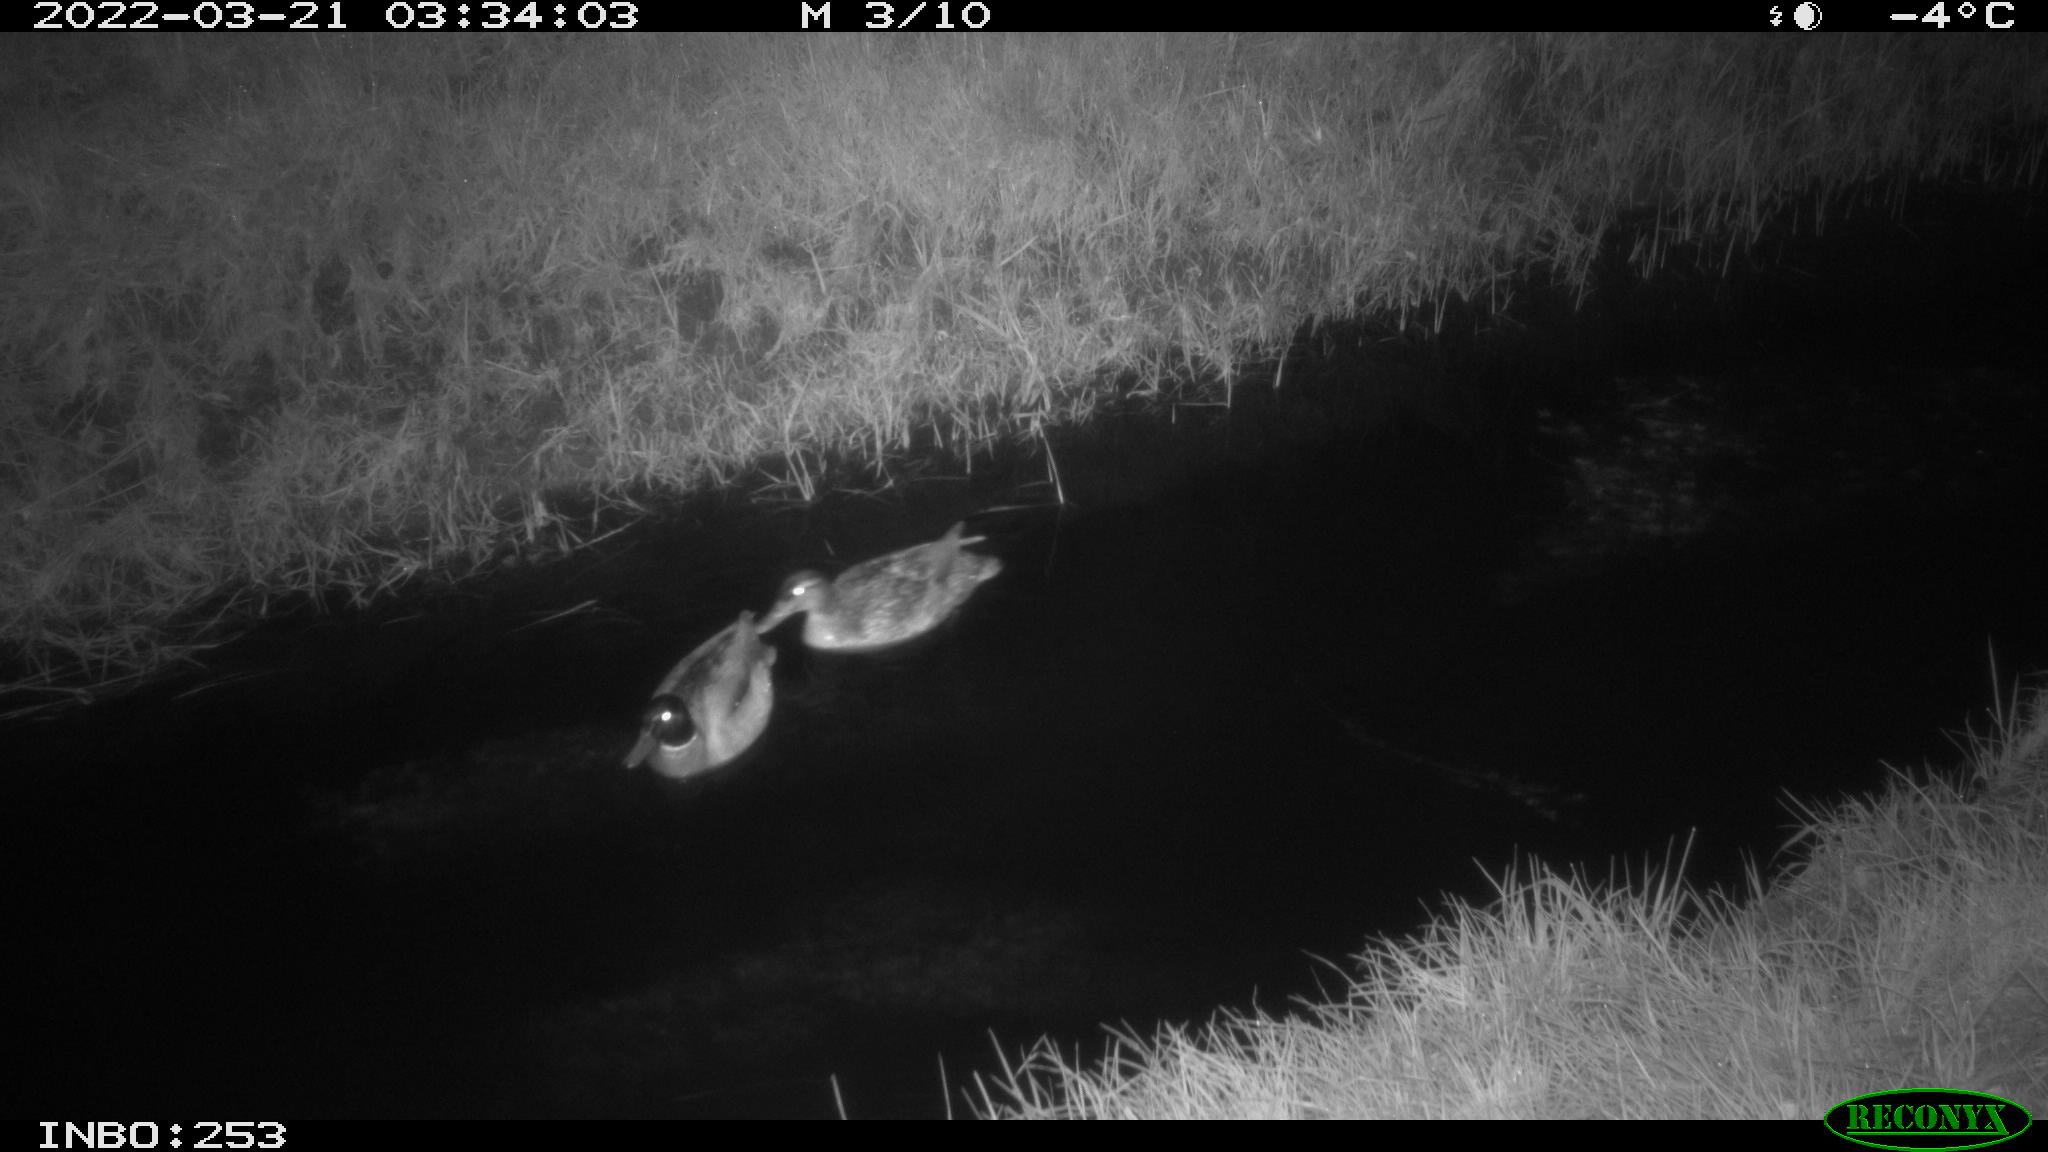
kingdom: Animalia
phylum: Chordata
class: Aves
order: Anseriformes
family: Anatidae
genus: Anas
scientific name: Anas platyrhynchos
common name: Mallard
